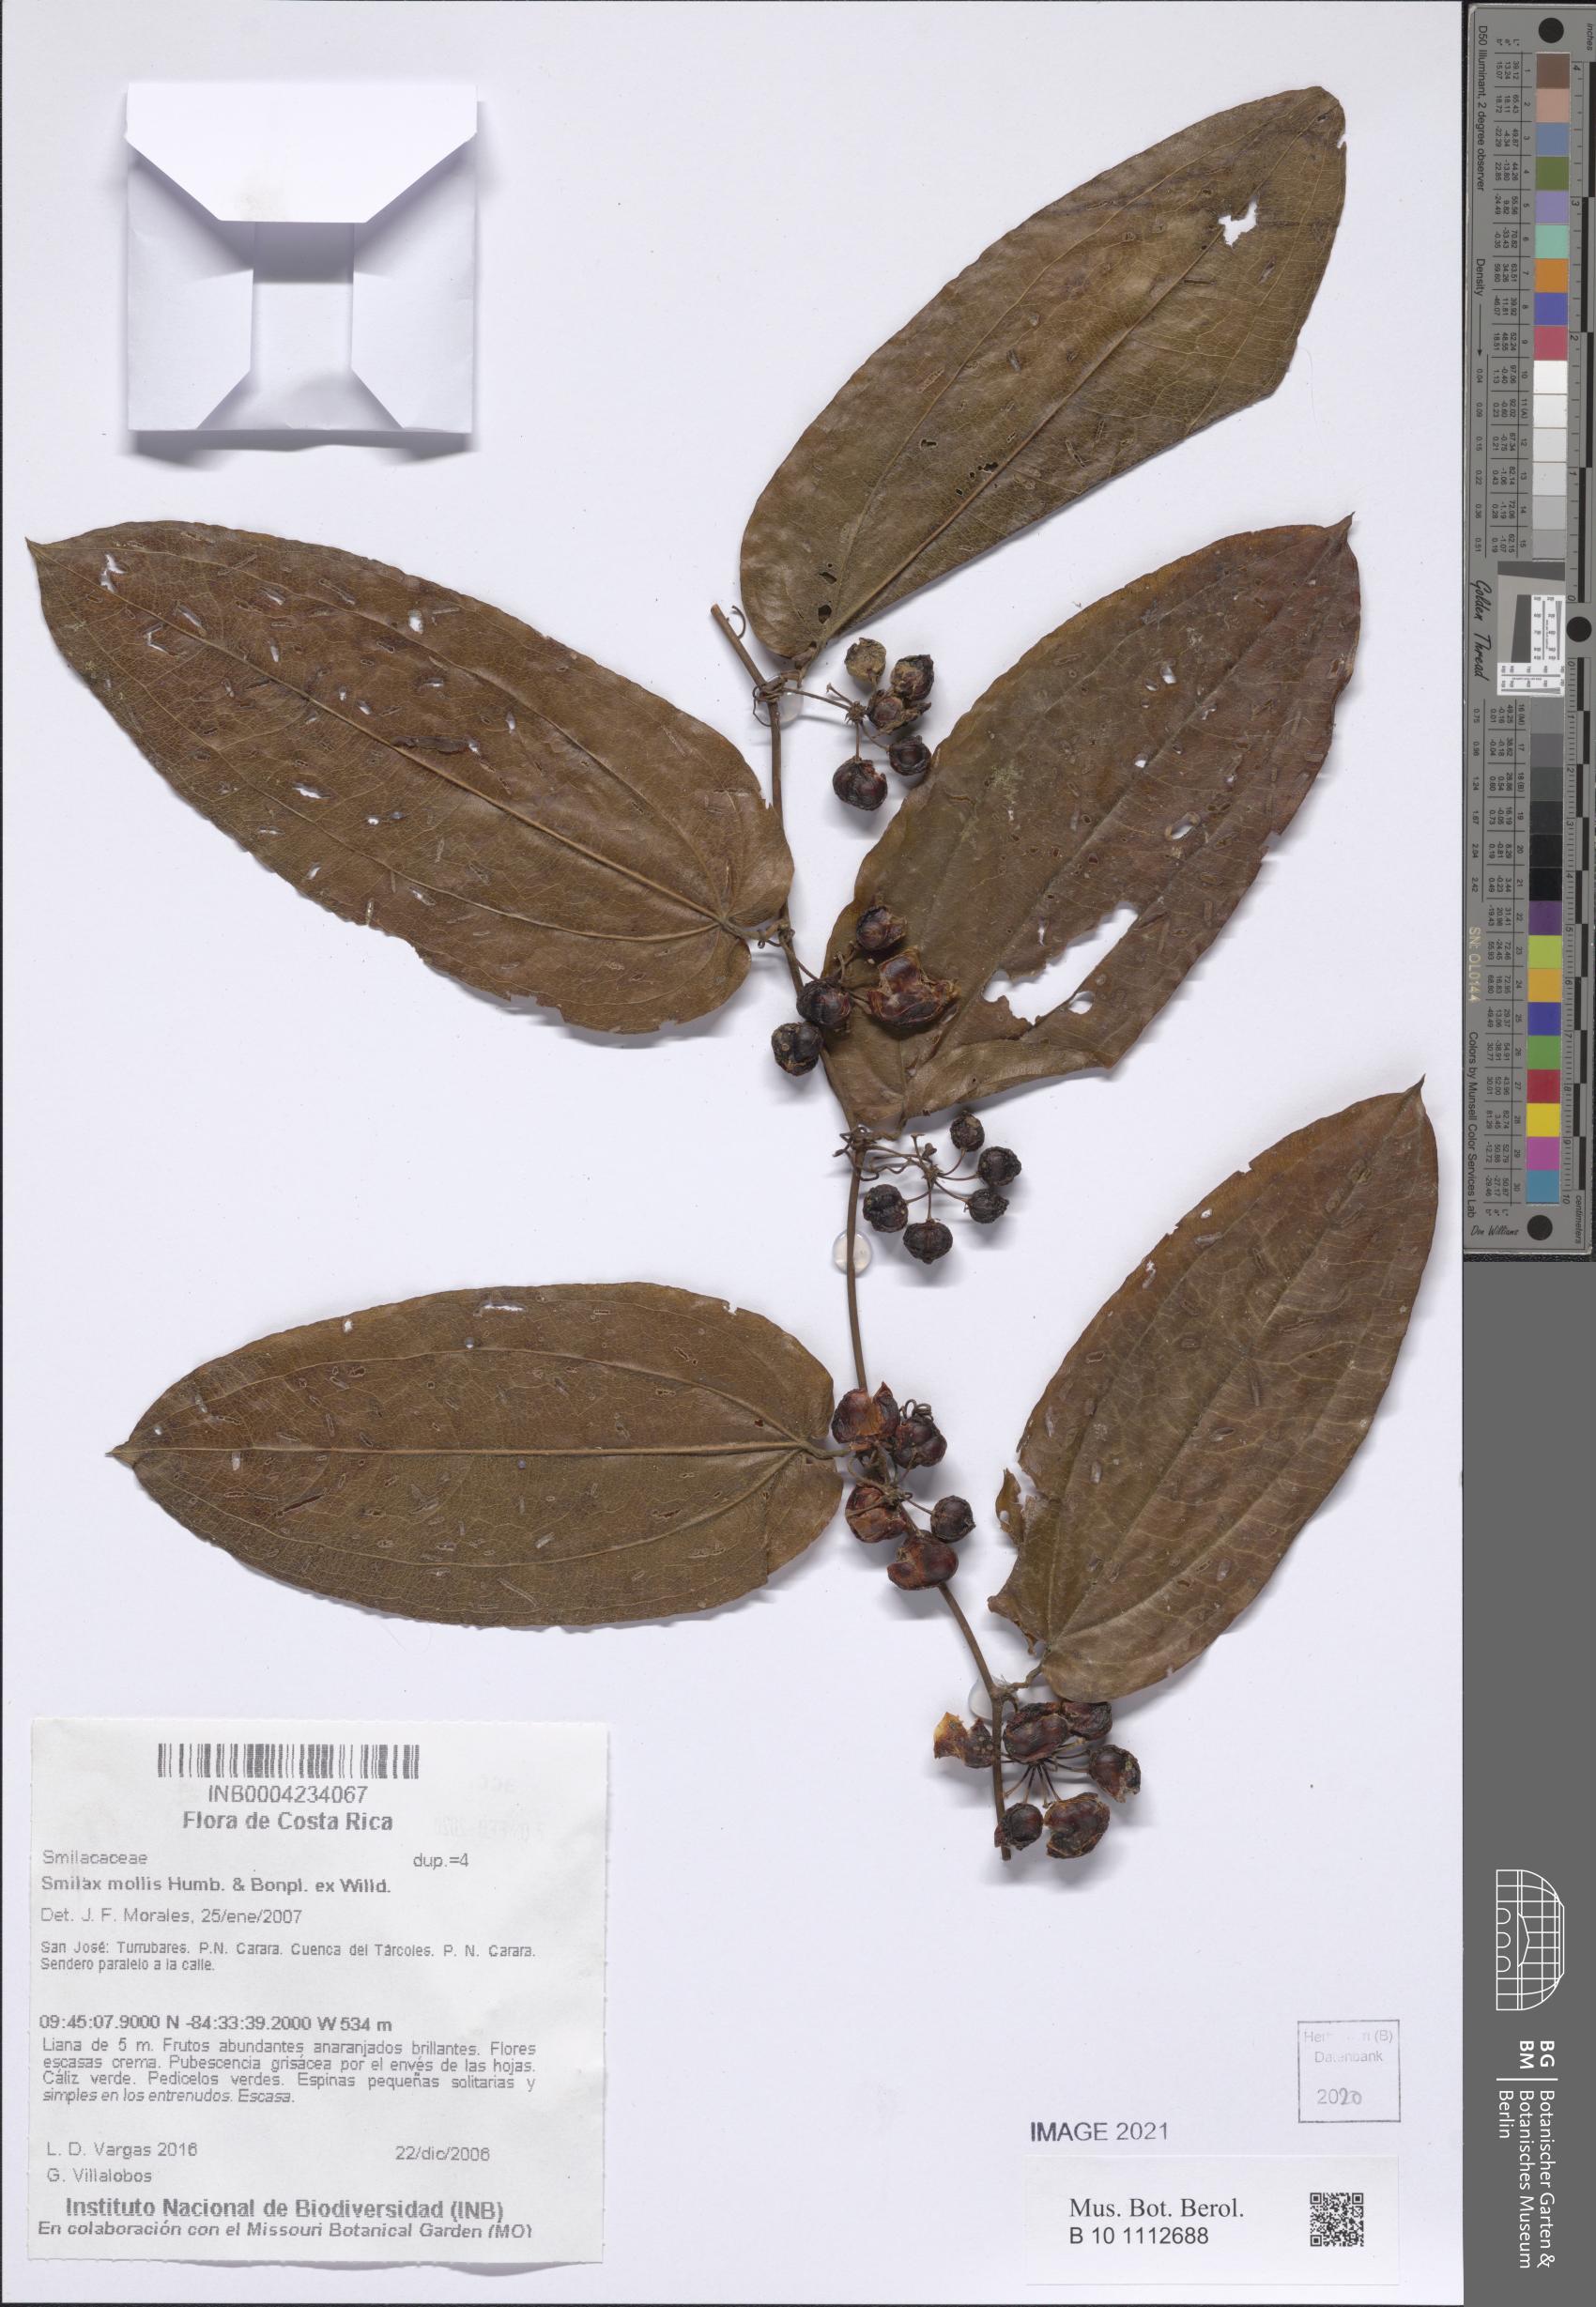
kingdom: Plantae
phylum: Tracheophyta
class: Liliopsida
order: Liliales
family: Smilacaceae
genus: Smilax
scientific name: Smilax mollis
